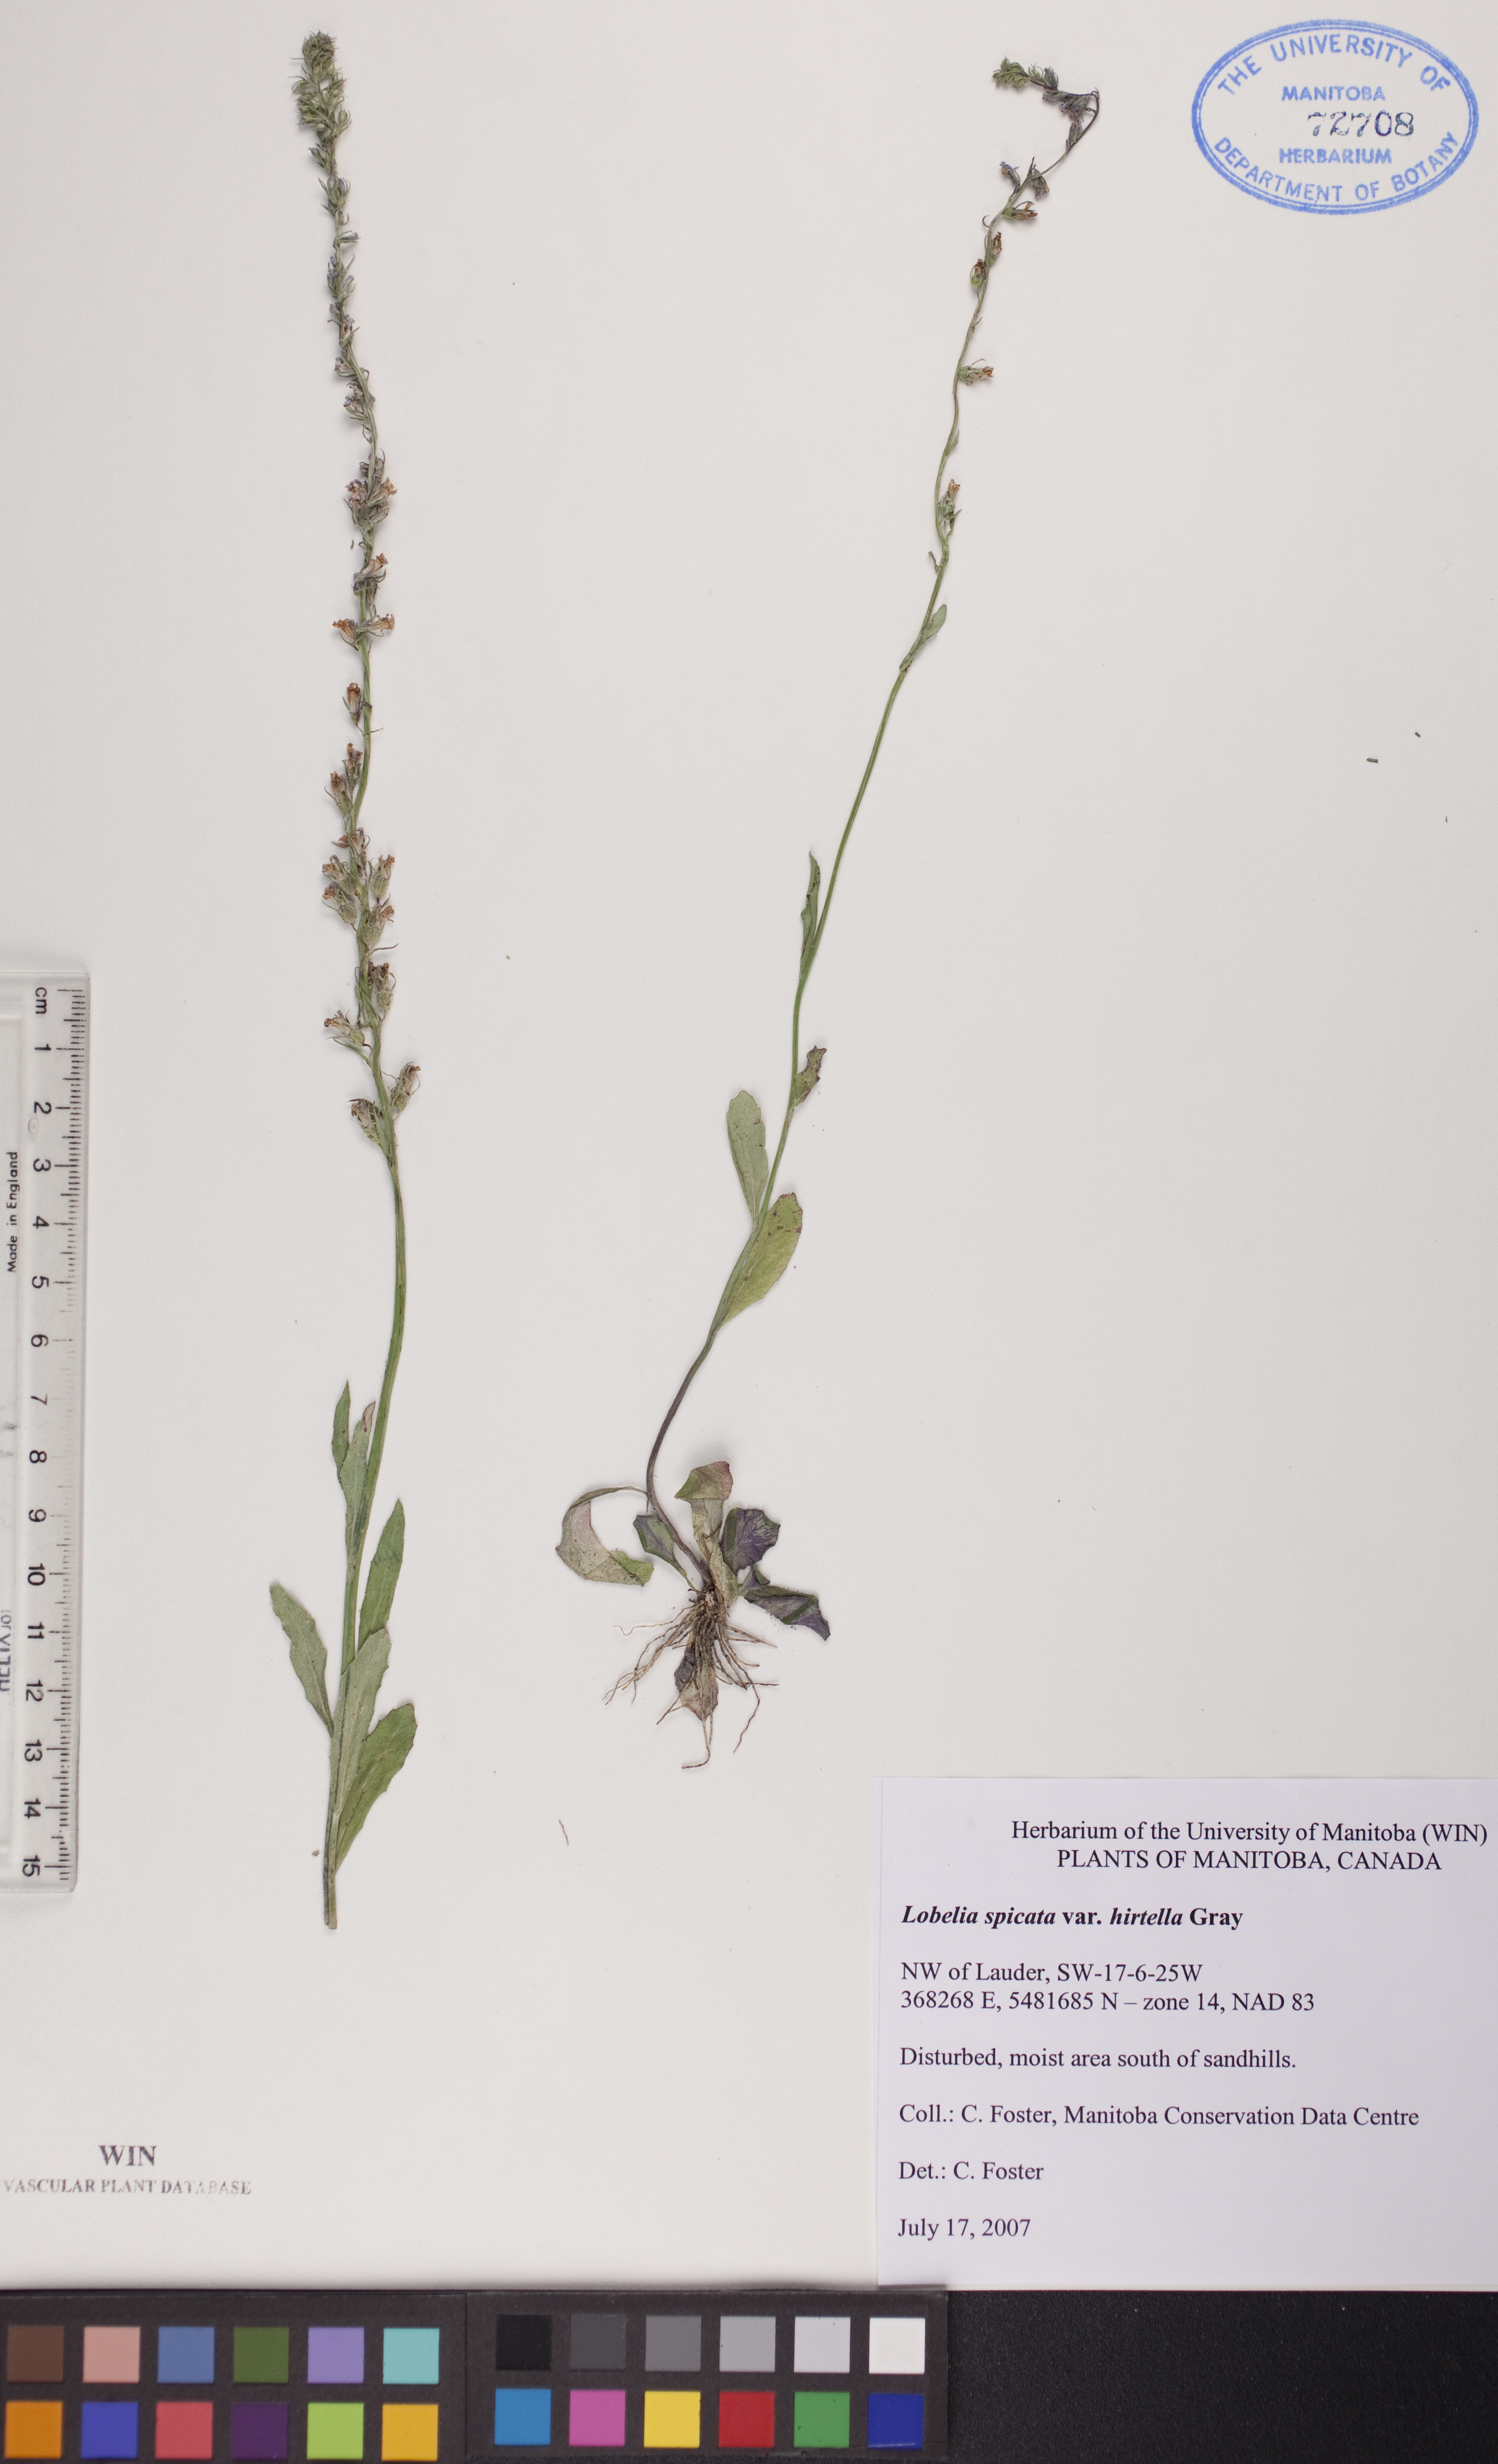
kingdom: Plantae
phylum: Tracheophyta
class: Magnoliopsida
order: Asterales
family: Campanulaceae
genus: Lobelia
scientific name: Lobelia spicata
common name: Pale-spike lobelia
